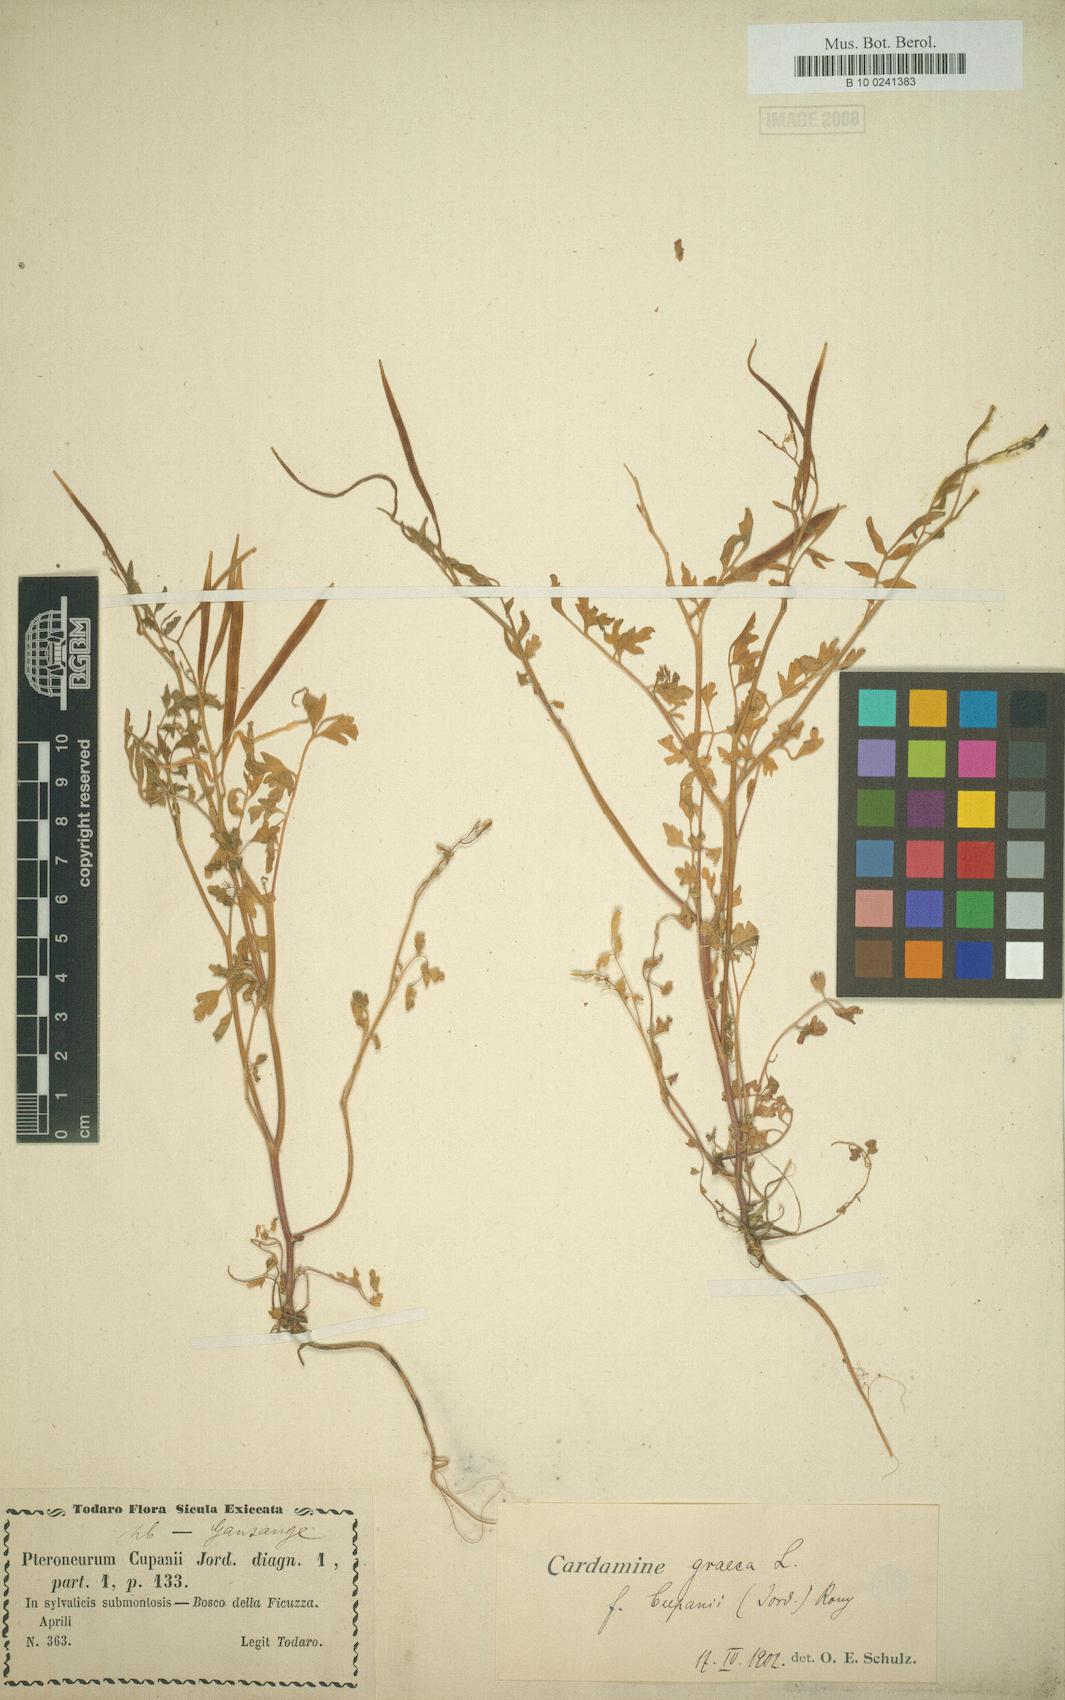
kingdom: Plantae
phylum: Tracheophyta
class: Magnoliopsida
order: Brassicales
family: Brassicaceae
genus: Cardamine
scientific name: Cardamine graeca
